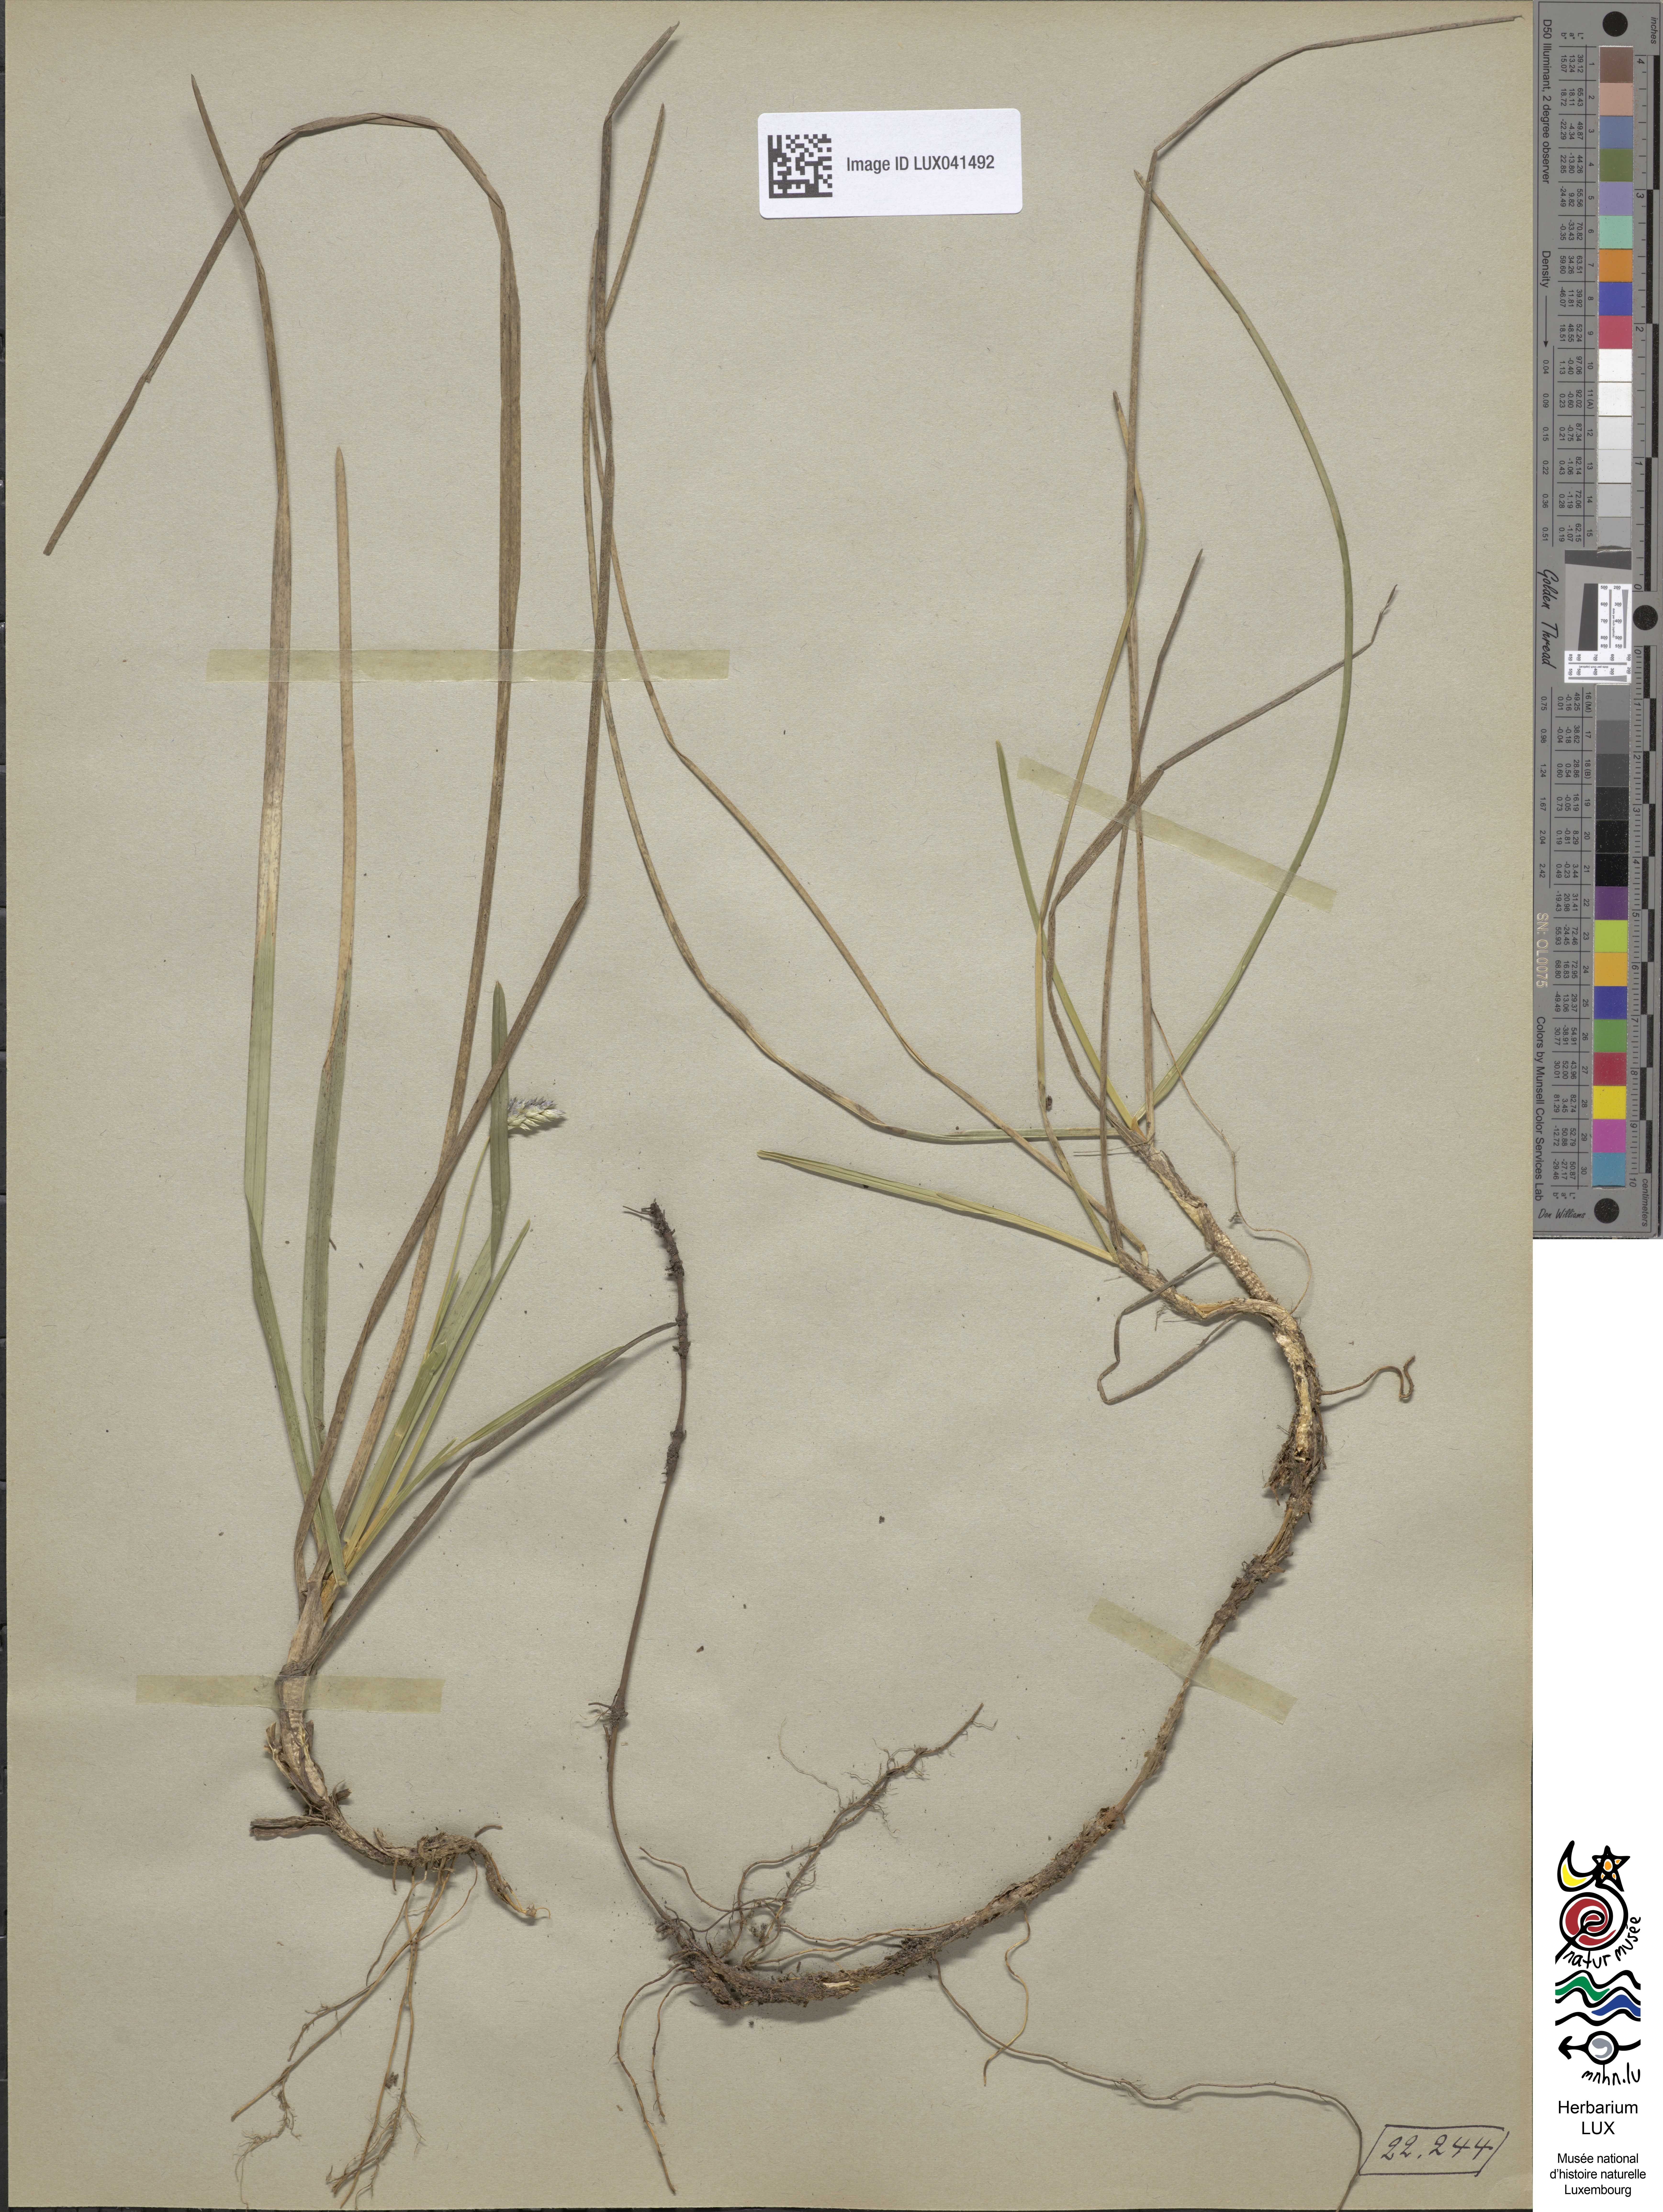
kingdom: Plantae
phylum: Tracheophyta
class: Liliopsida
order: Poales
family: Poaceae
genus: Sesleria
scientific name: Sesleria albicans
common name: Blue moor-grass
